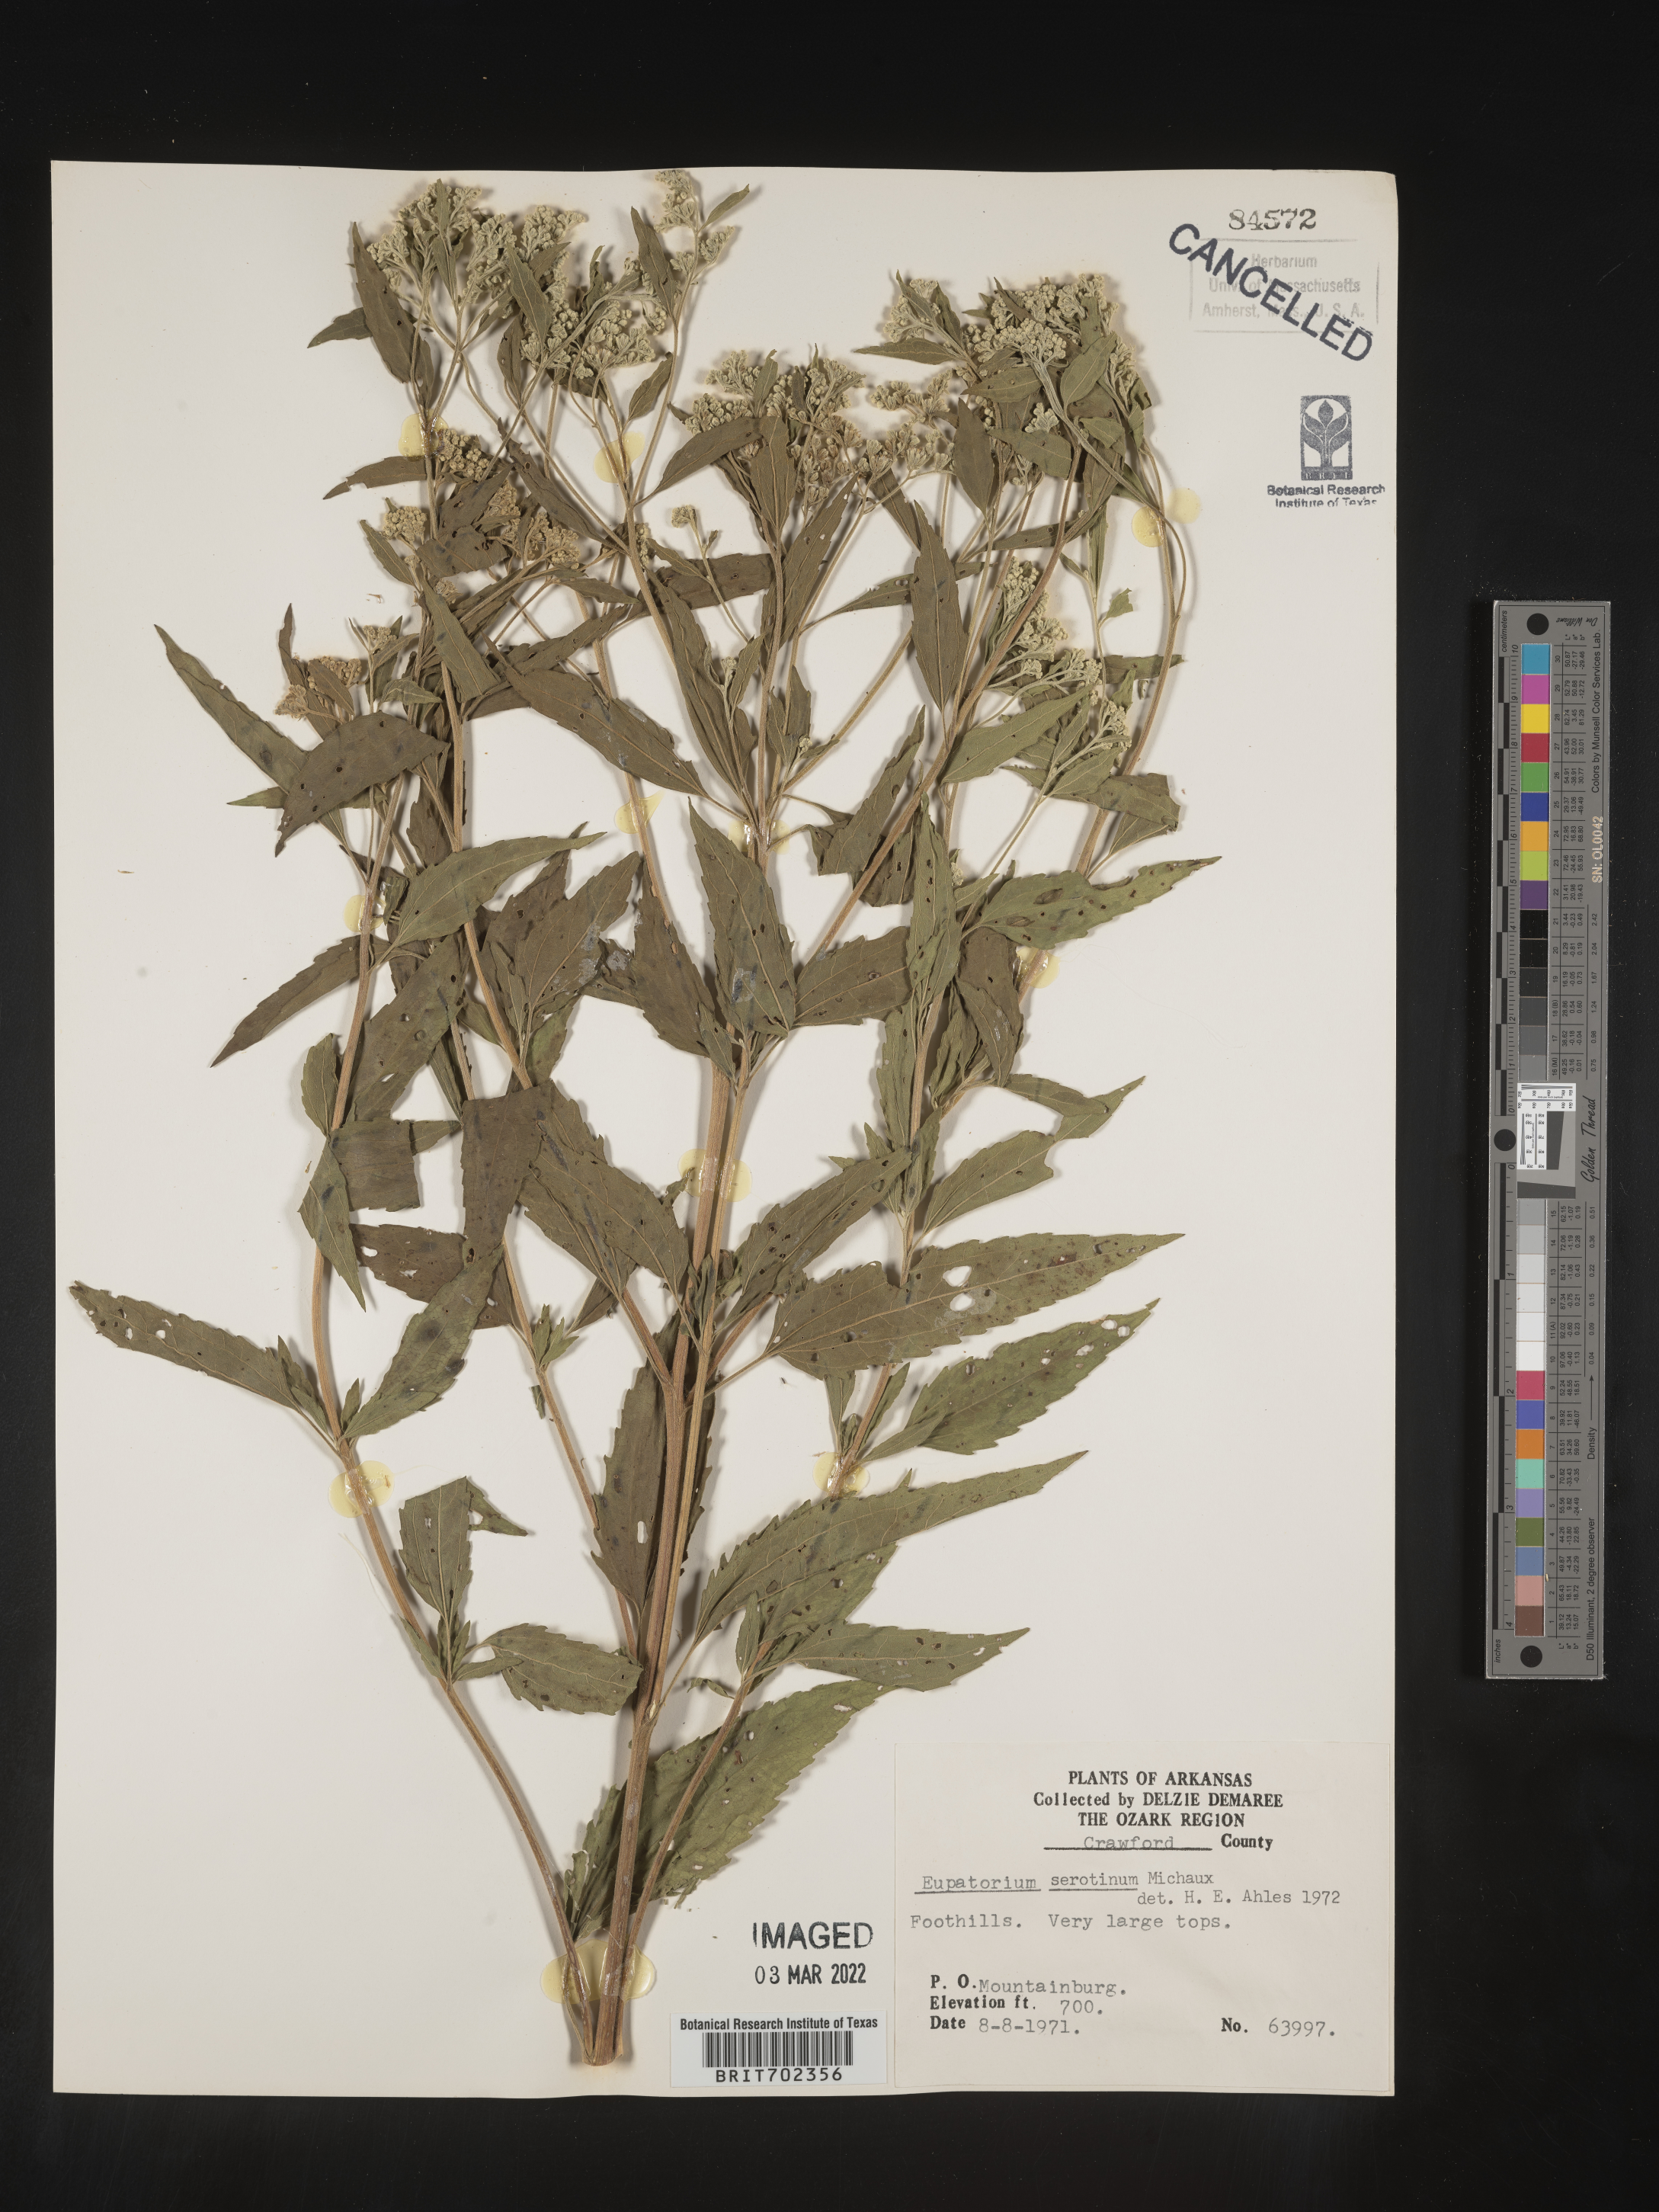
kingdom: Plantae
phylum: Tracheophyta
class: Magnoliopsida
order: Asterales
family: Asteraceae
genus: Eupatorium
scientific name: Eupatorium serotinum
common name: Late boneset
